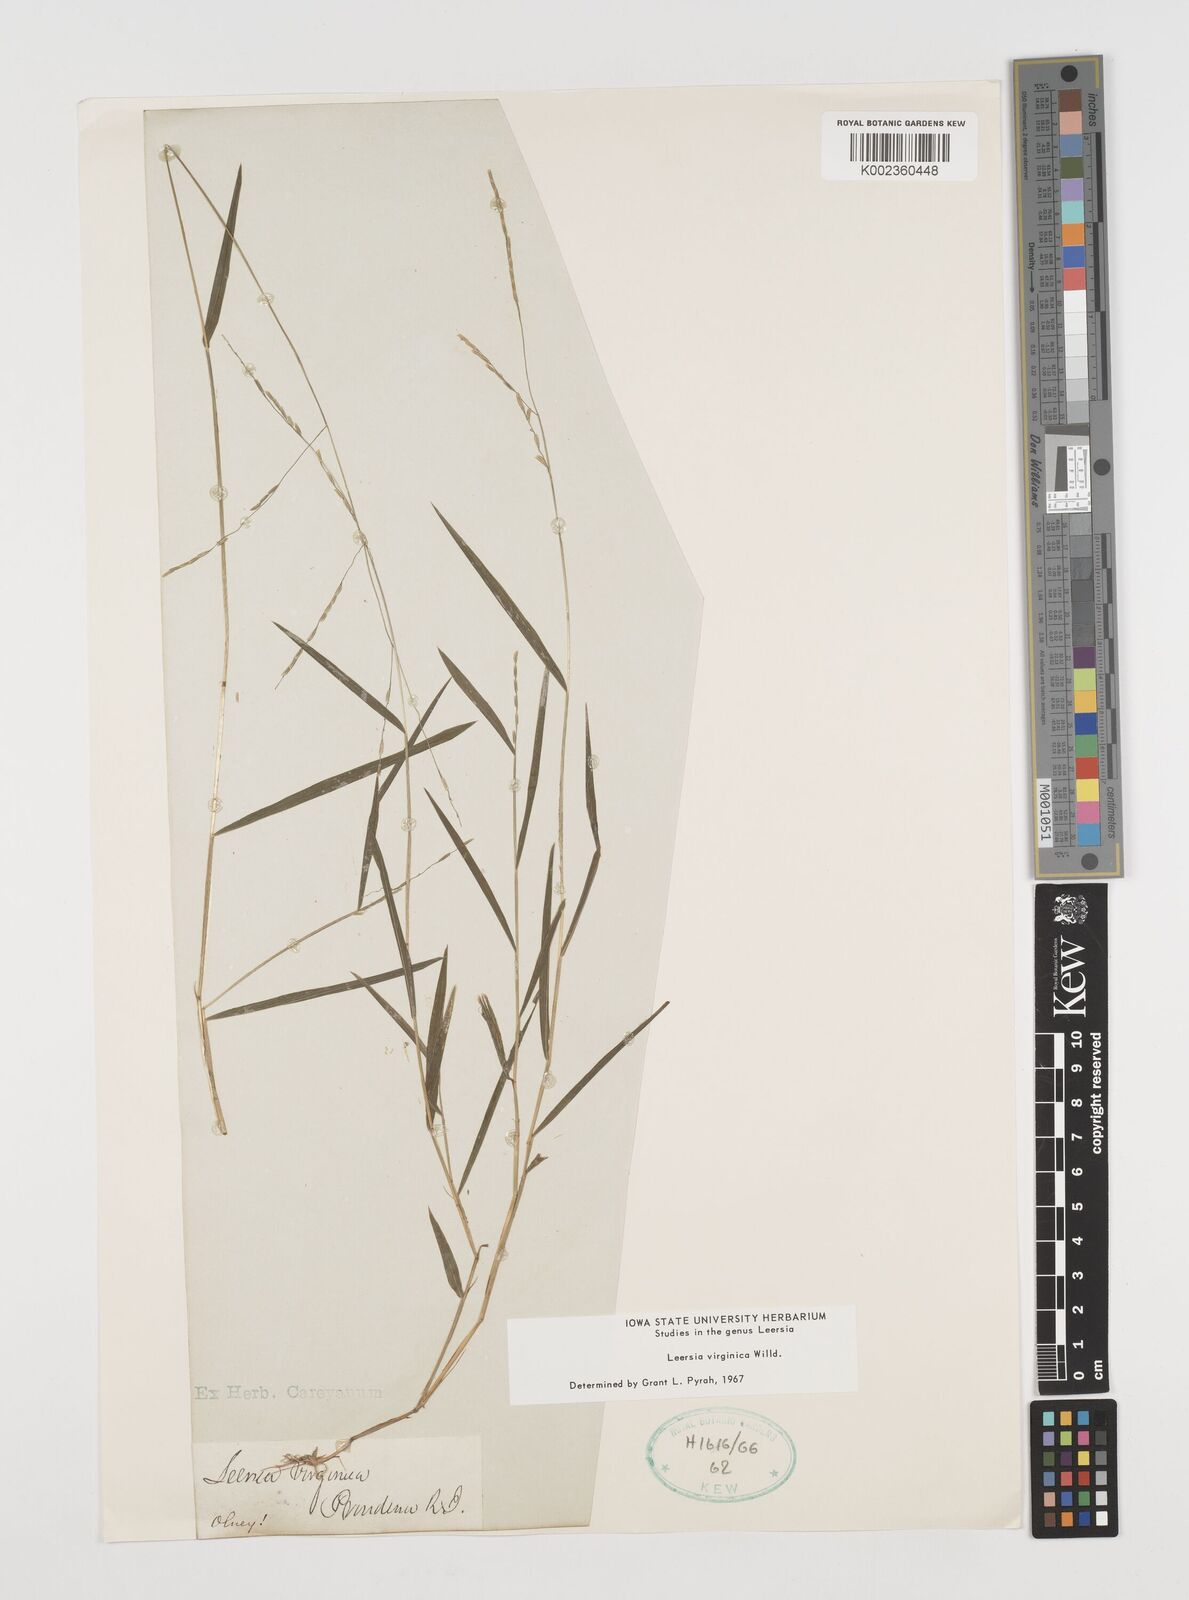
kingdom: Plantae
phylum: Tracheophyta
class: Liliopsida
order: Poales
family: Poaceae
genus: Leersia
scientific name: Leersia virginica
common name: White cutgrass
